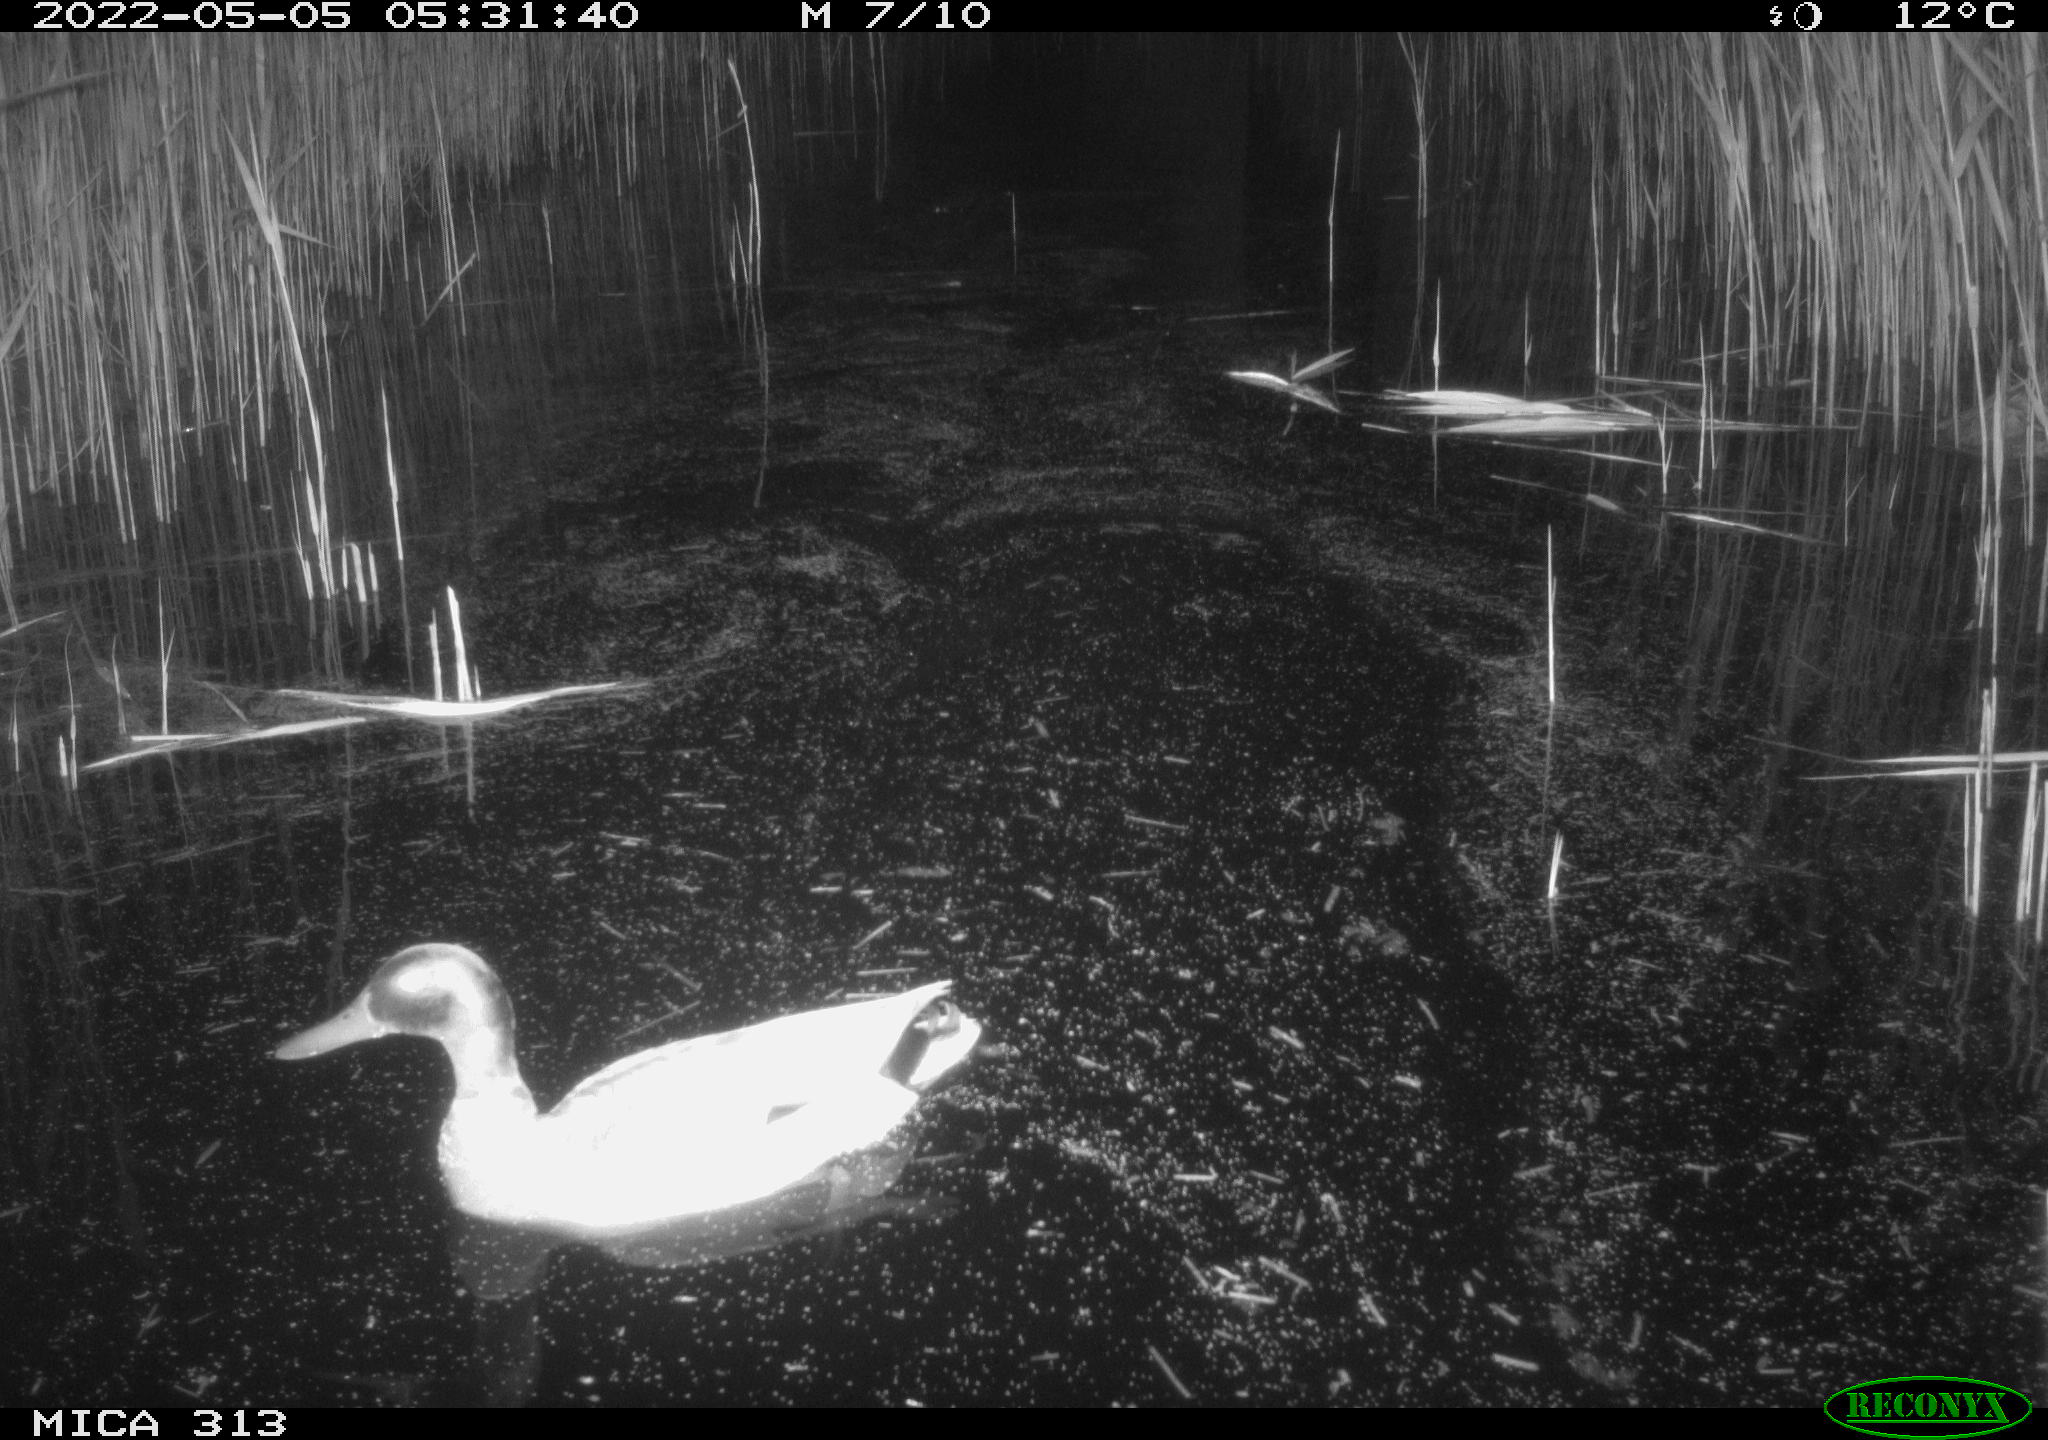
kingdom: Animalia
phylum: Chordata
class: Aves
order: Anseriformes
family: Anatidae
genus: Anas
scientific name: Anas platyrhynchos
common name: Mallard
